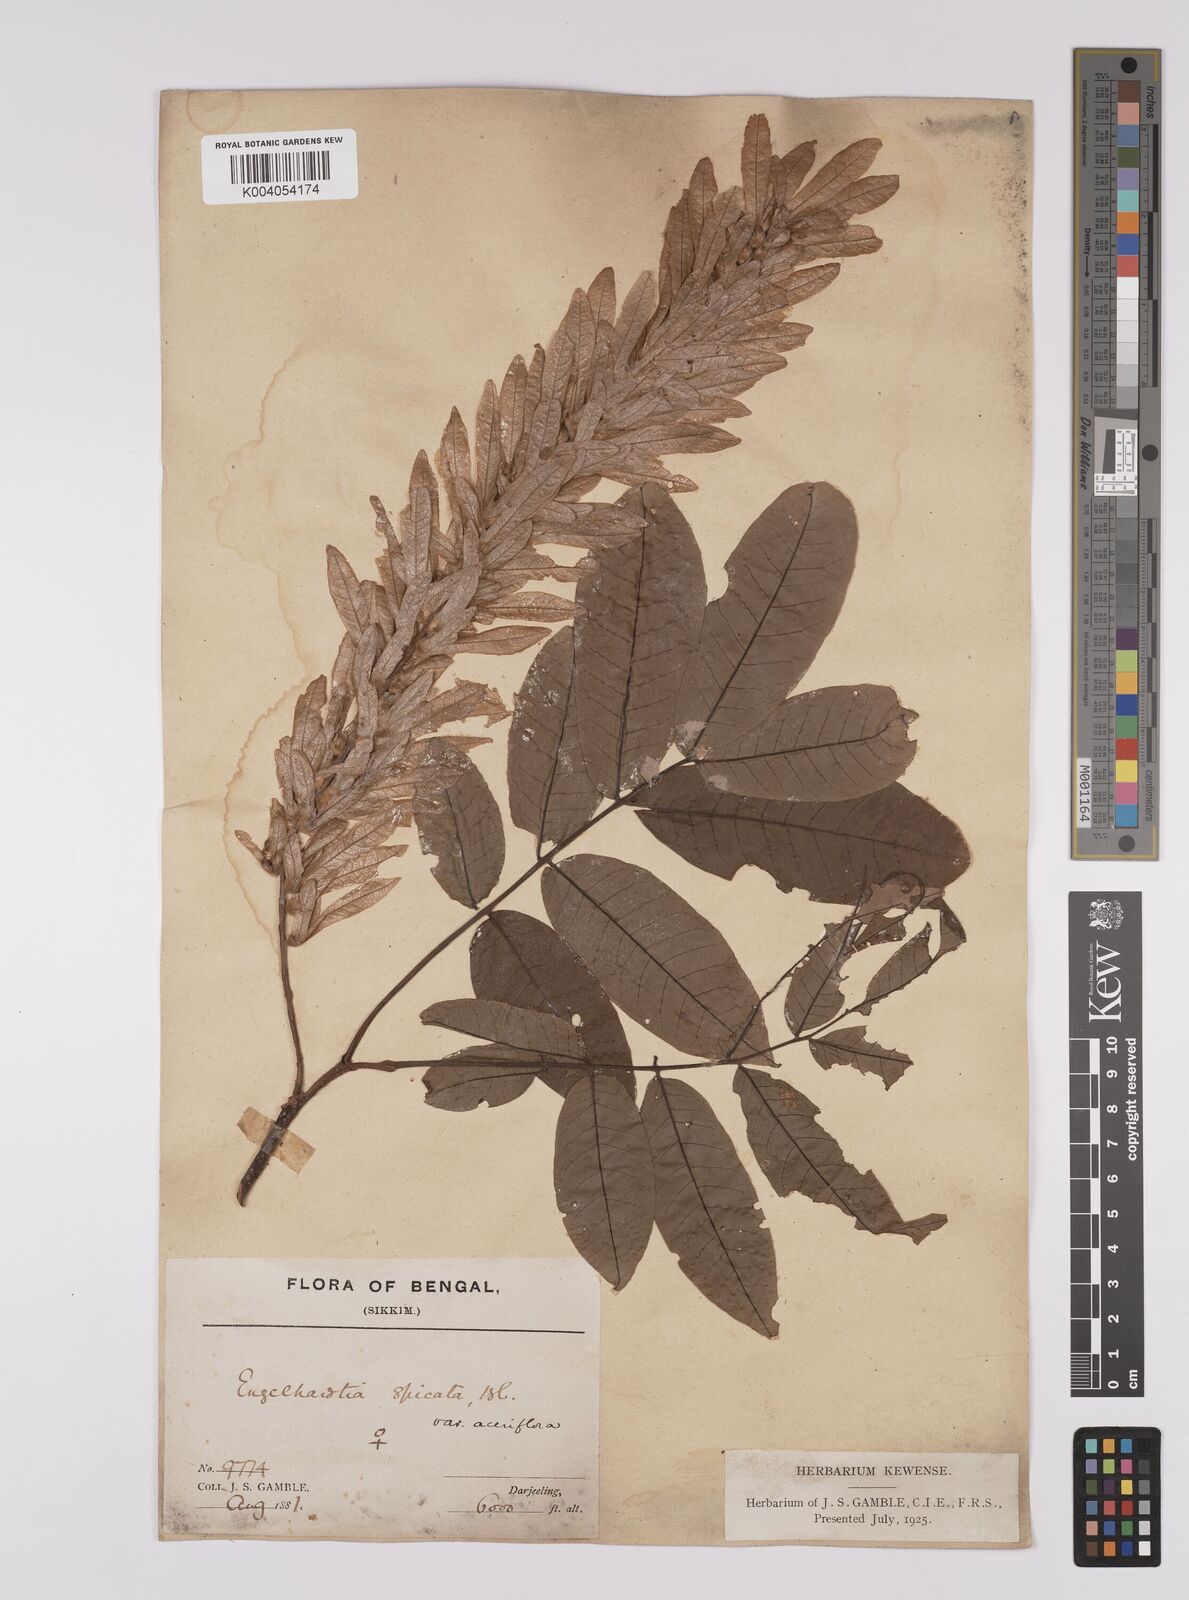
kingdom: Plantae
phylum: Tracheophyta
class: Magnoliopsida
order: Fagales
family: Juglandaceae
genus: Engelhardia
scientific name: Engelhardia spicata
